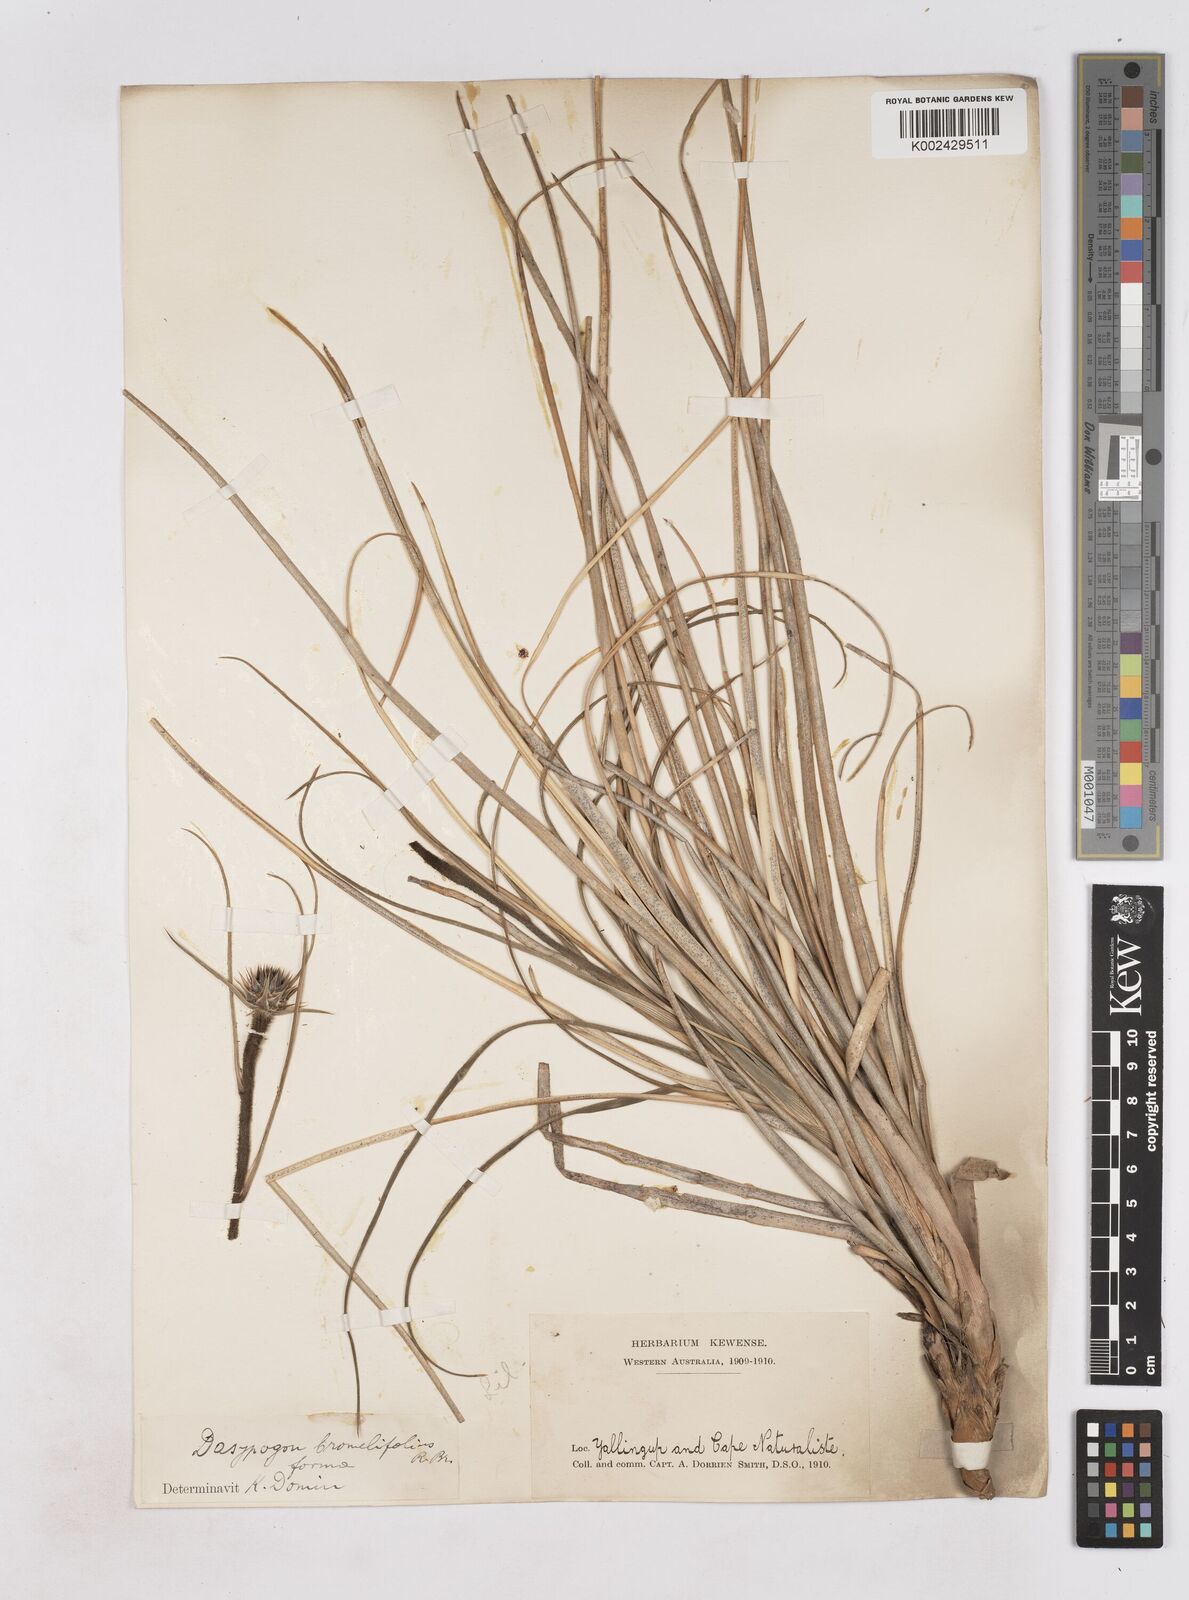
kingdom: Plantae
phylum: Tracheophyta
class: Liliopsida
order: Arecales
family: Dasypogonaceae
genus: Dasypogon
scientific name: Dasypogon bromeliifolius
